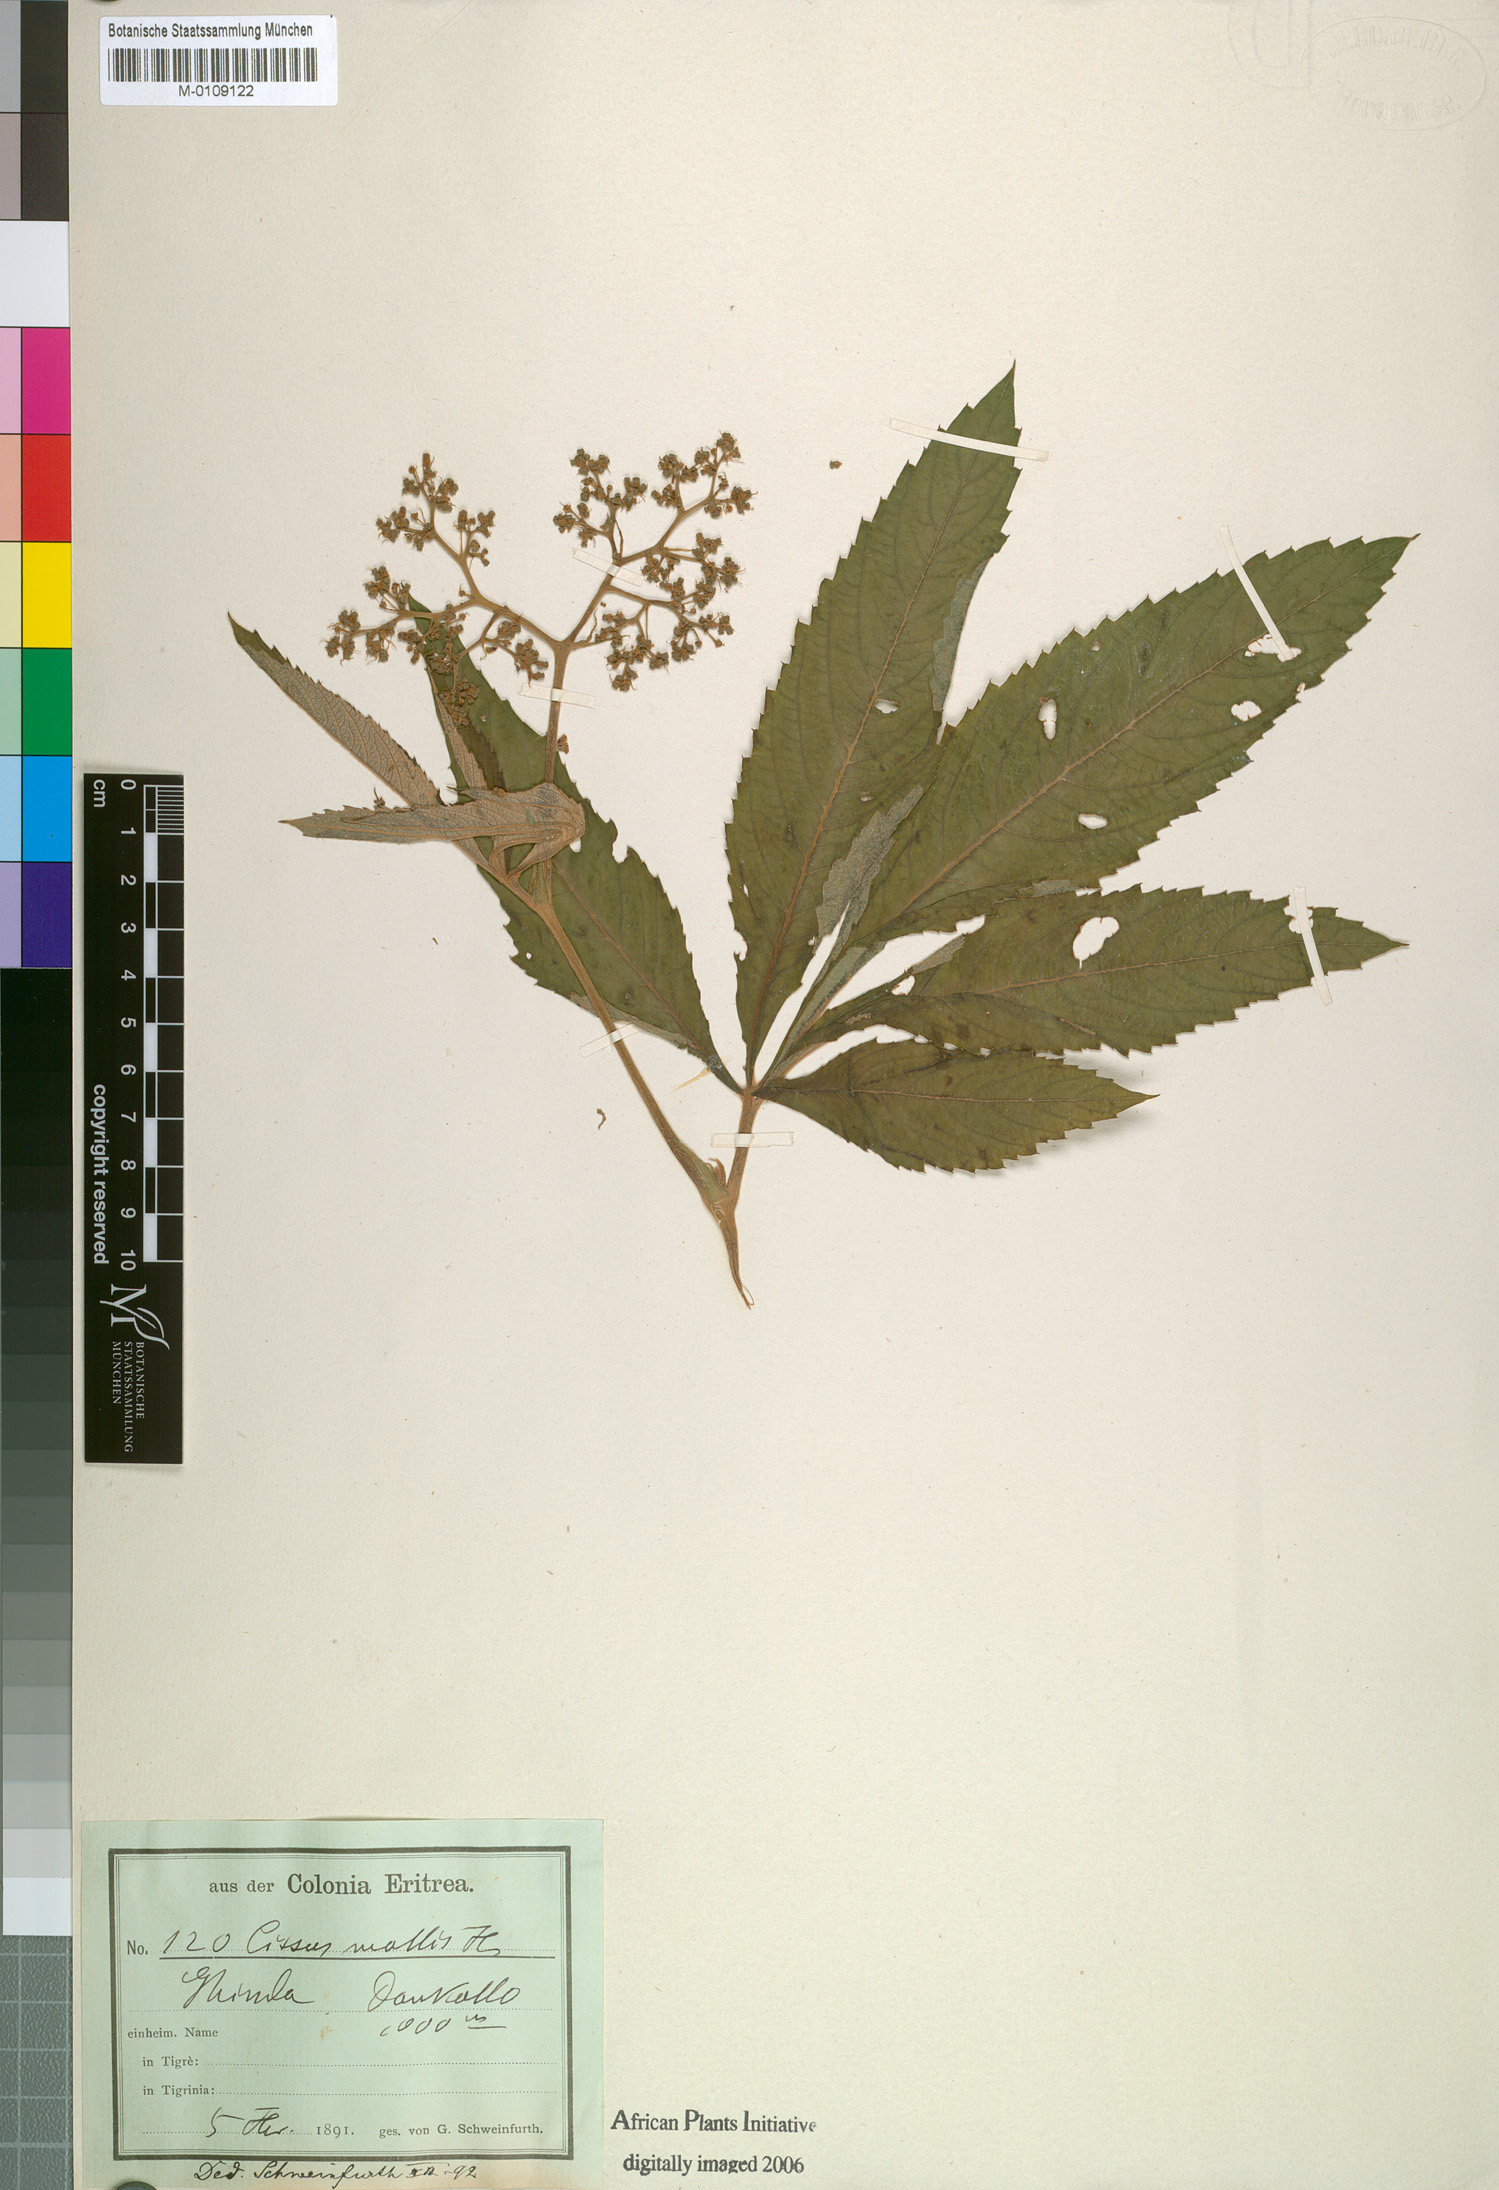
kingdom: Plantae
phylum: Tracheophyta
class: Magnoliopsida
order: Vitales
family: Vitaceae
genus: Cyphostemma
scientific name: Cyphostemma molle
